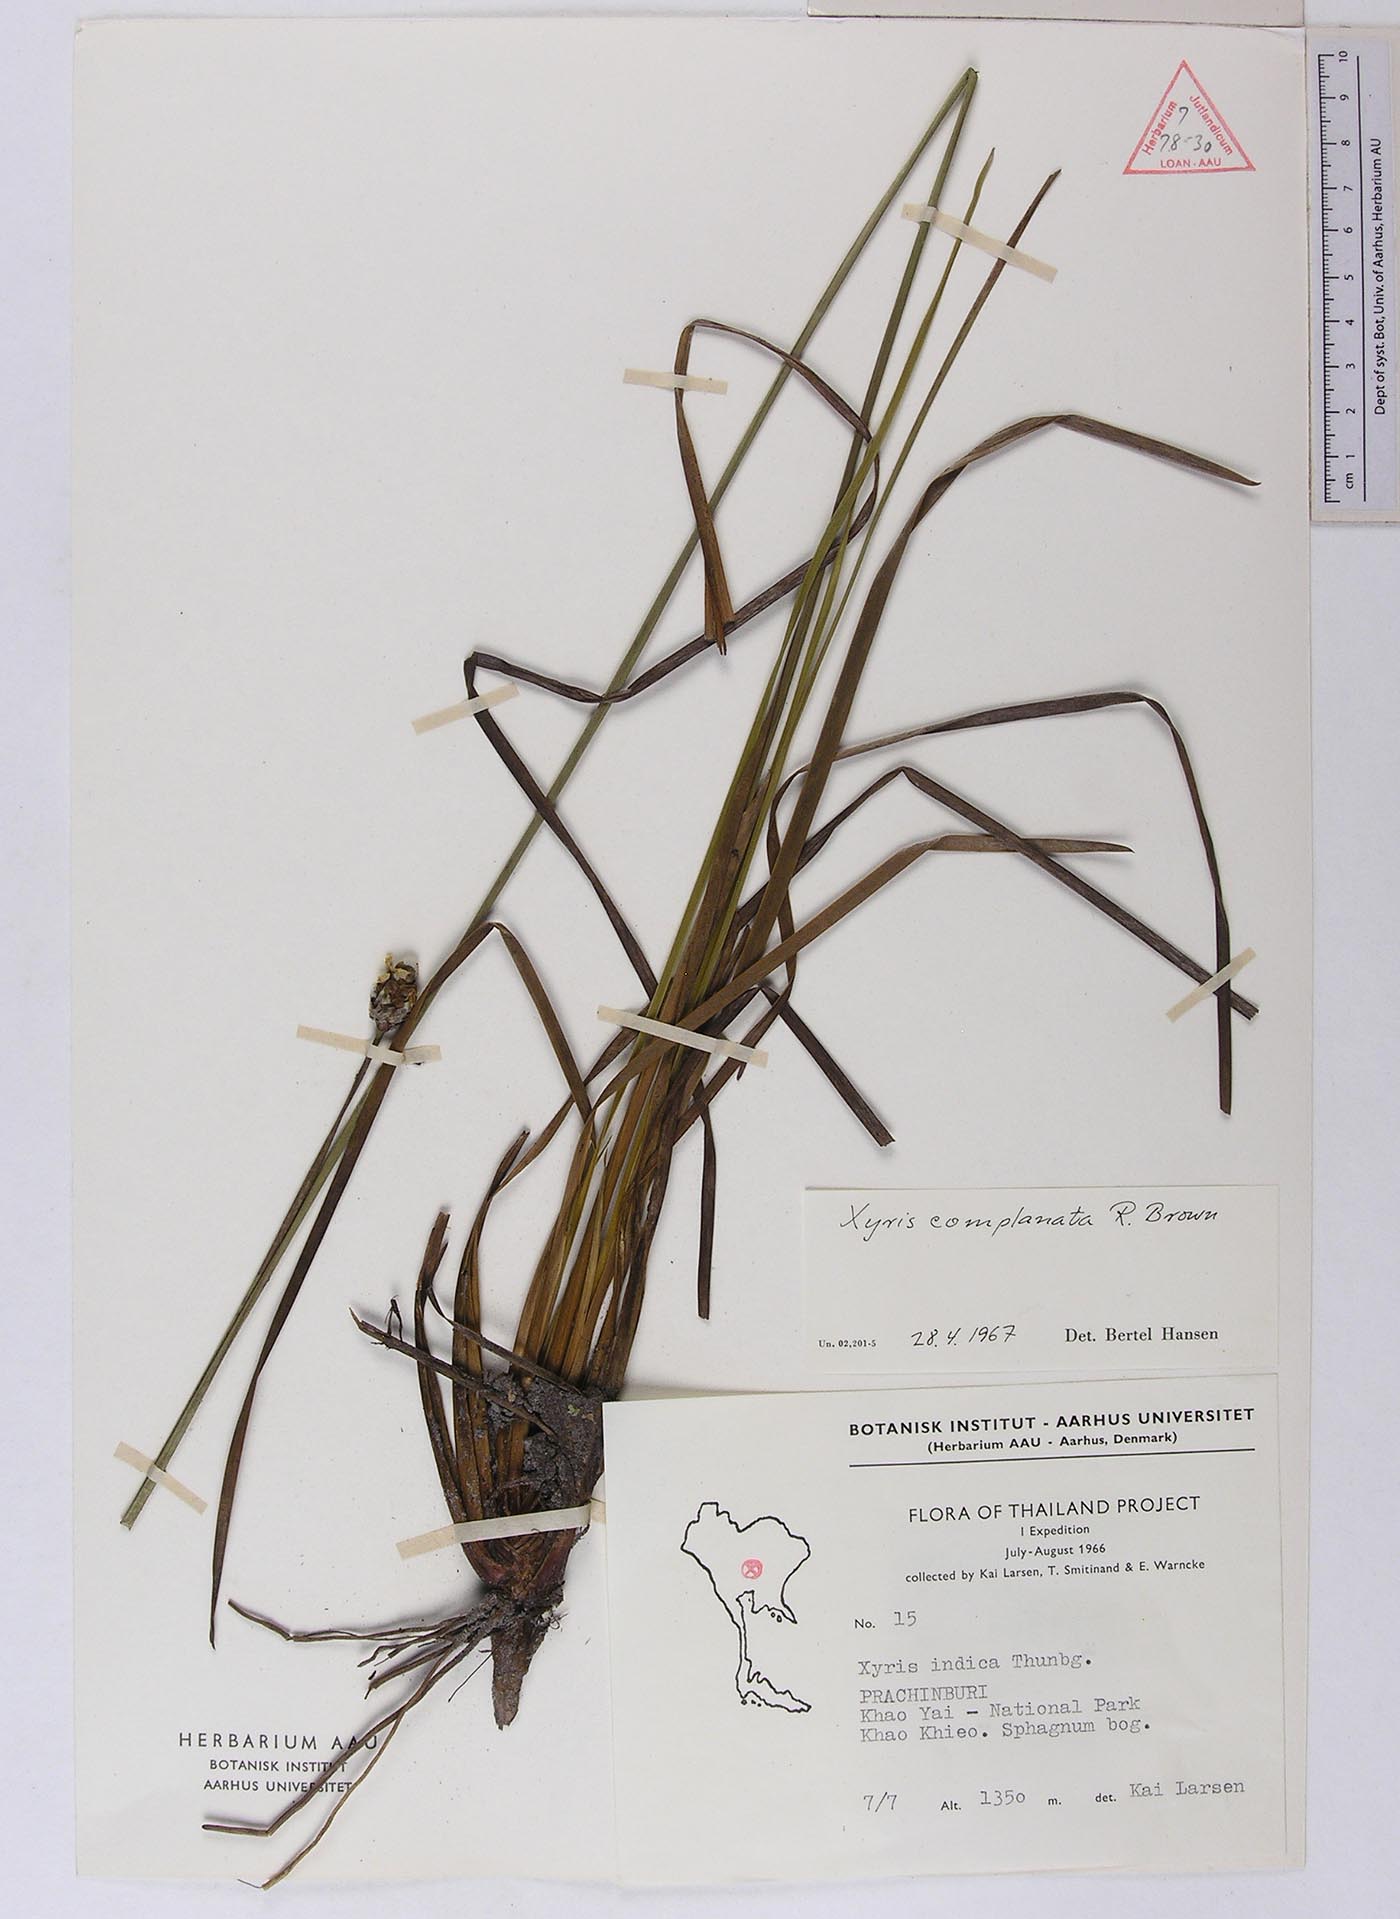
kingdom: Plantae
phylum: Tracheophyta
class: Liliopsida
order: Poales
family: Xyridaceae
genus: Xyris
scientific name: Xyris complanata
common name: Hawai'i yelloweyed grass
